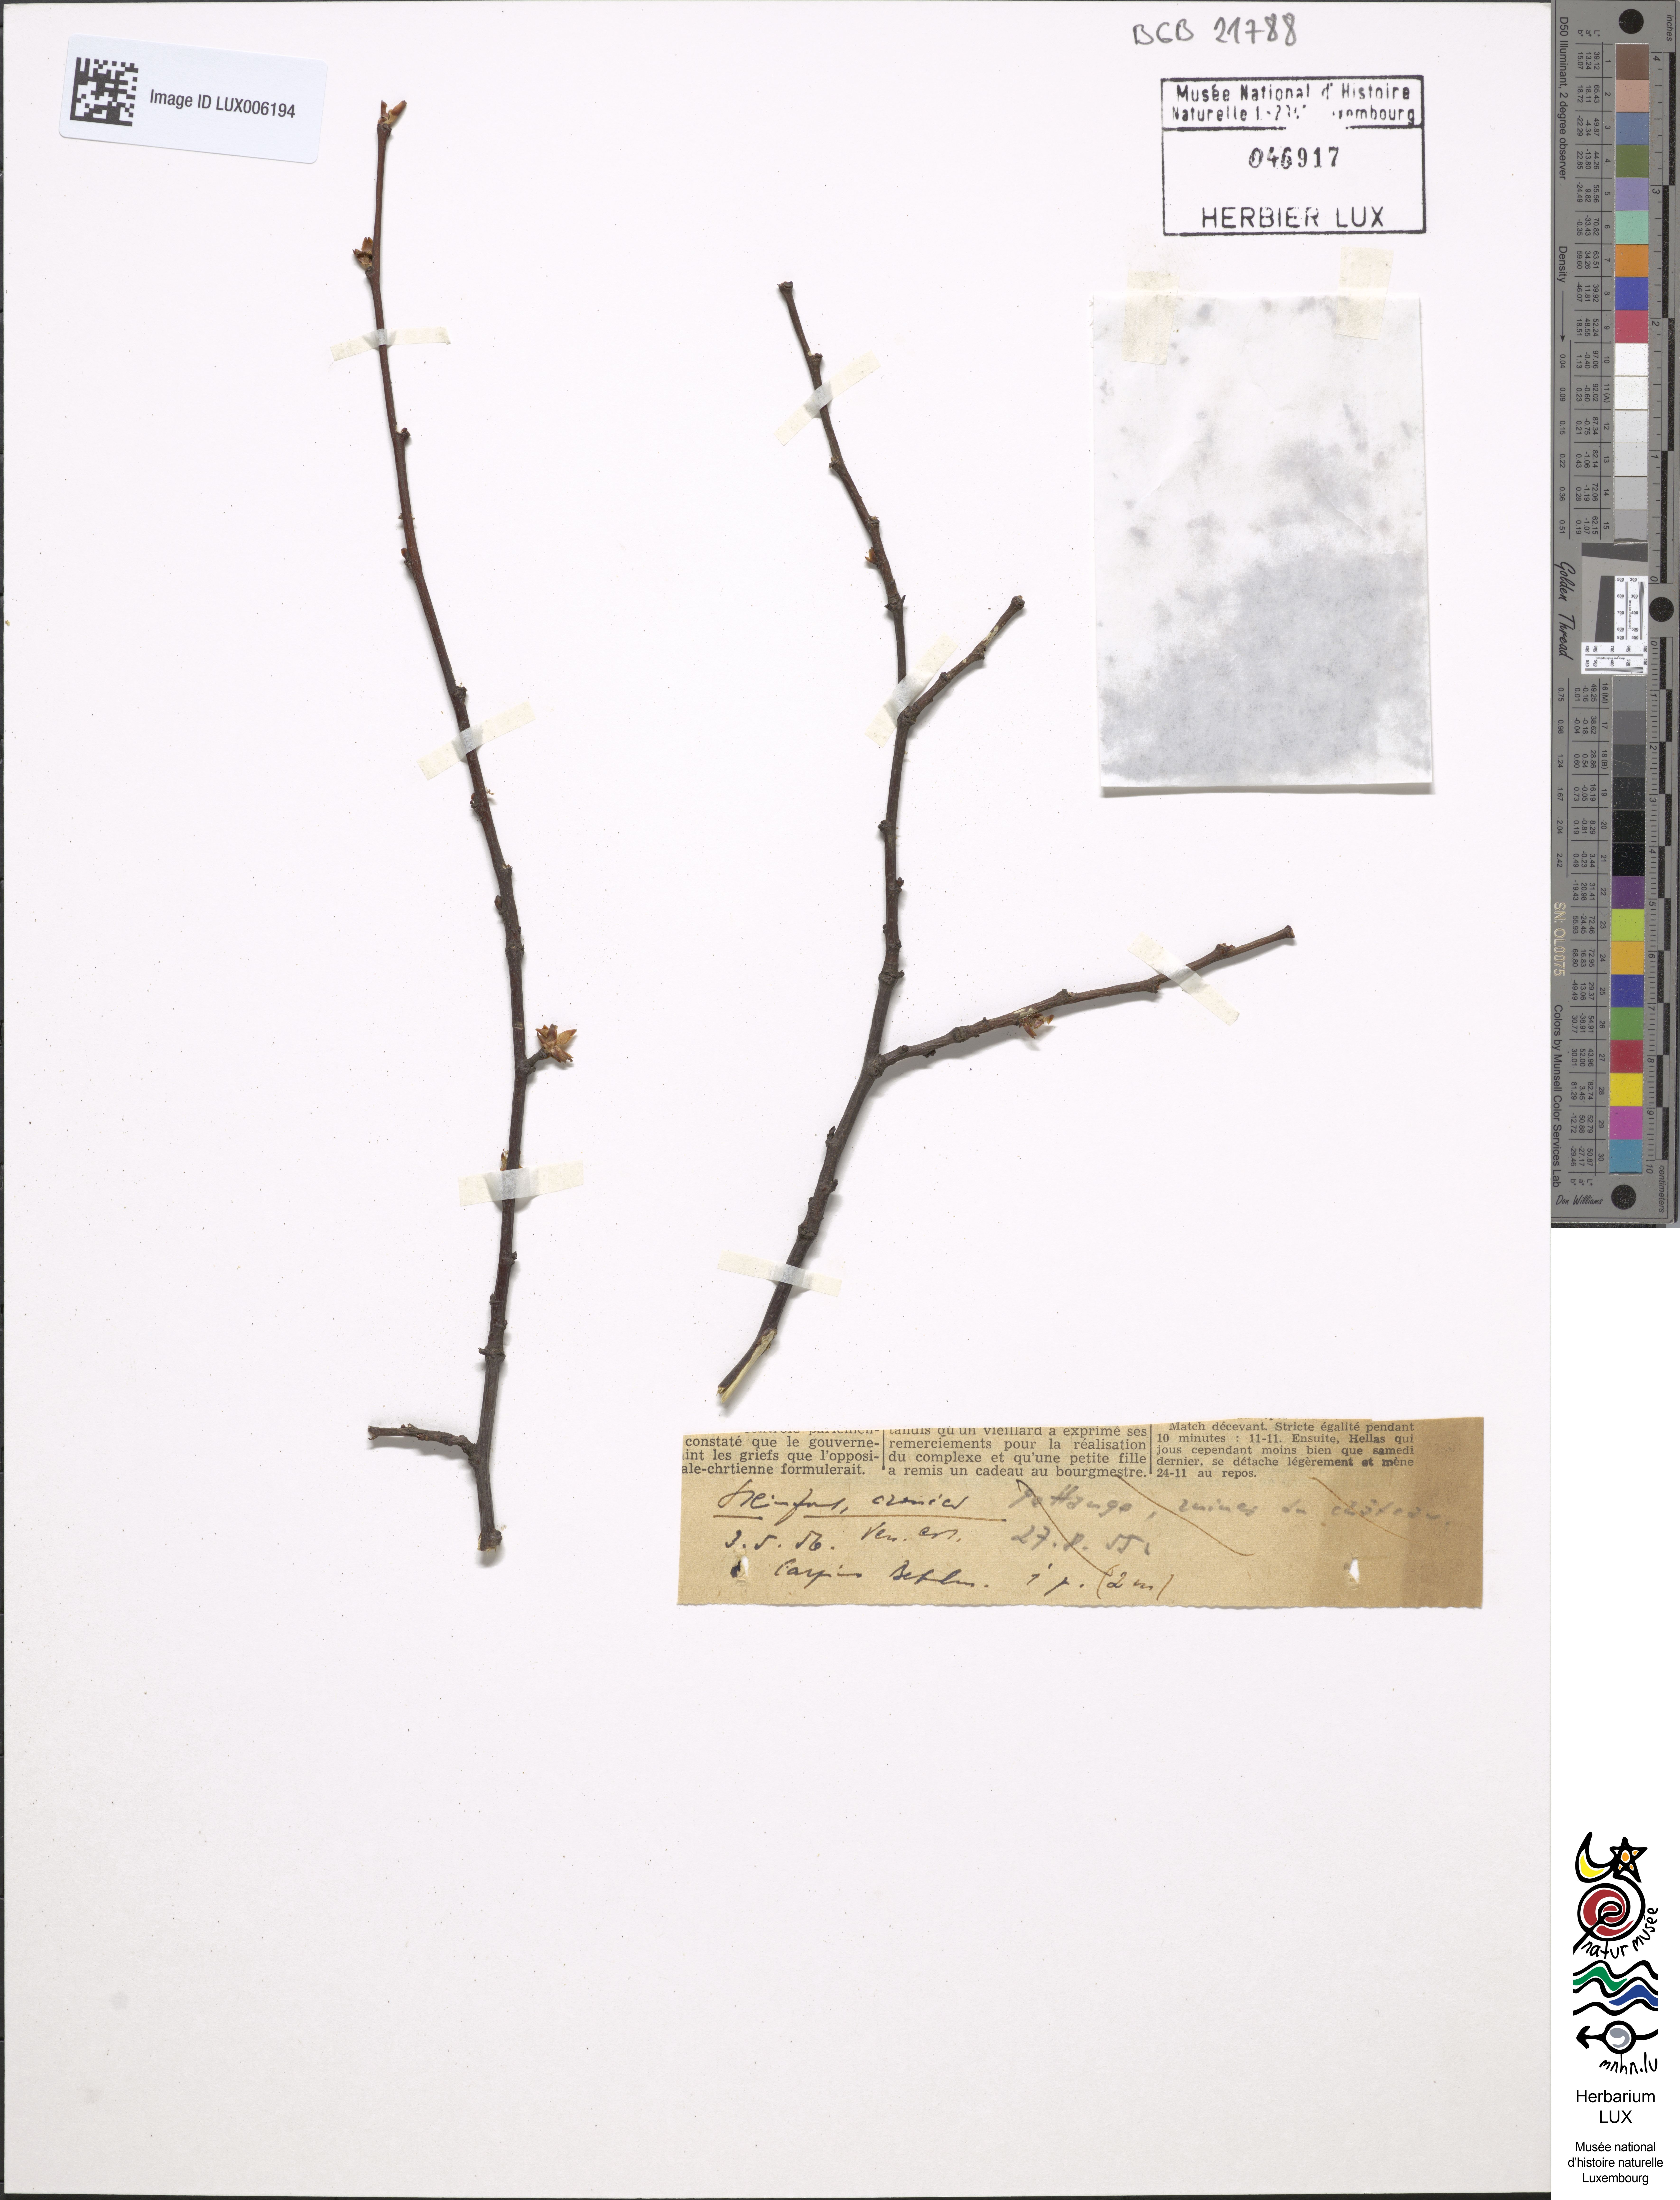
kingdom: Plantae
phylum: Tracheophyta
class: Magnoliopsida
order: Fagales
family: Betulaceae
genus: Carpinus
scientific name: Carpinus betulus
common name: Hornbeam
